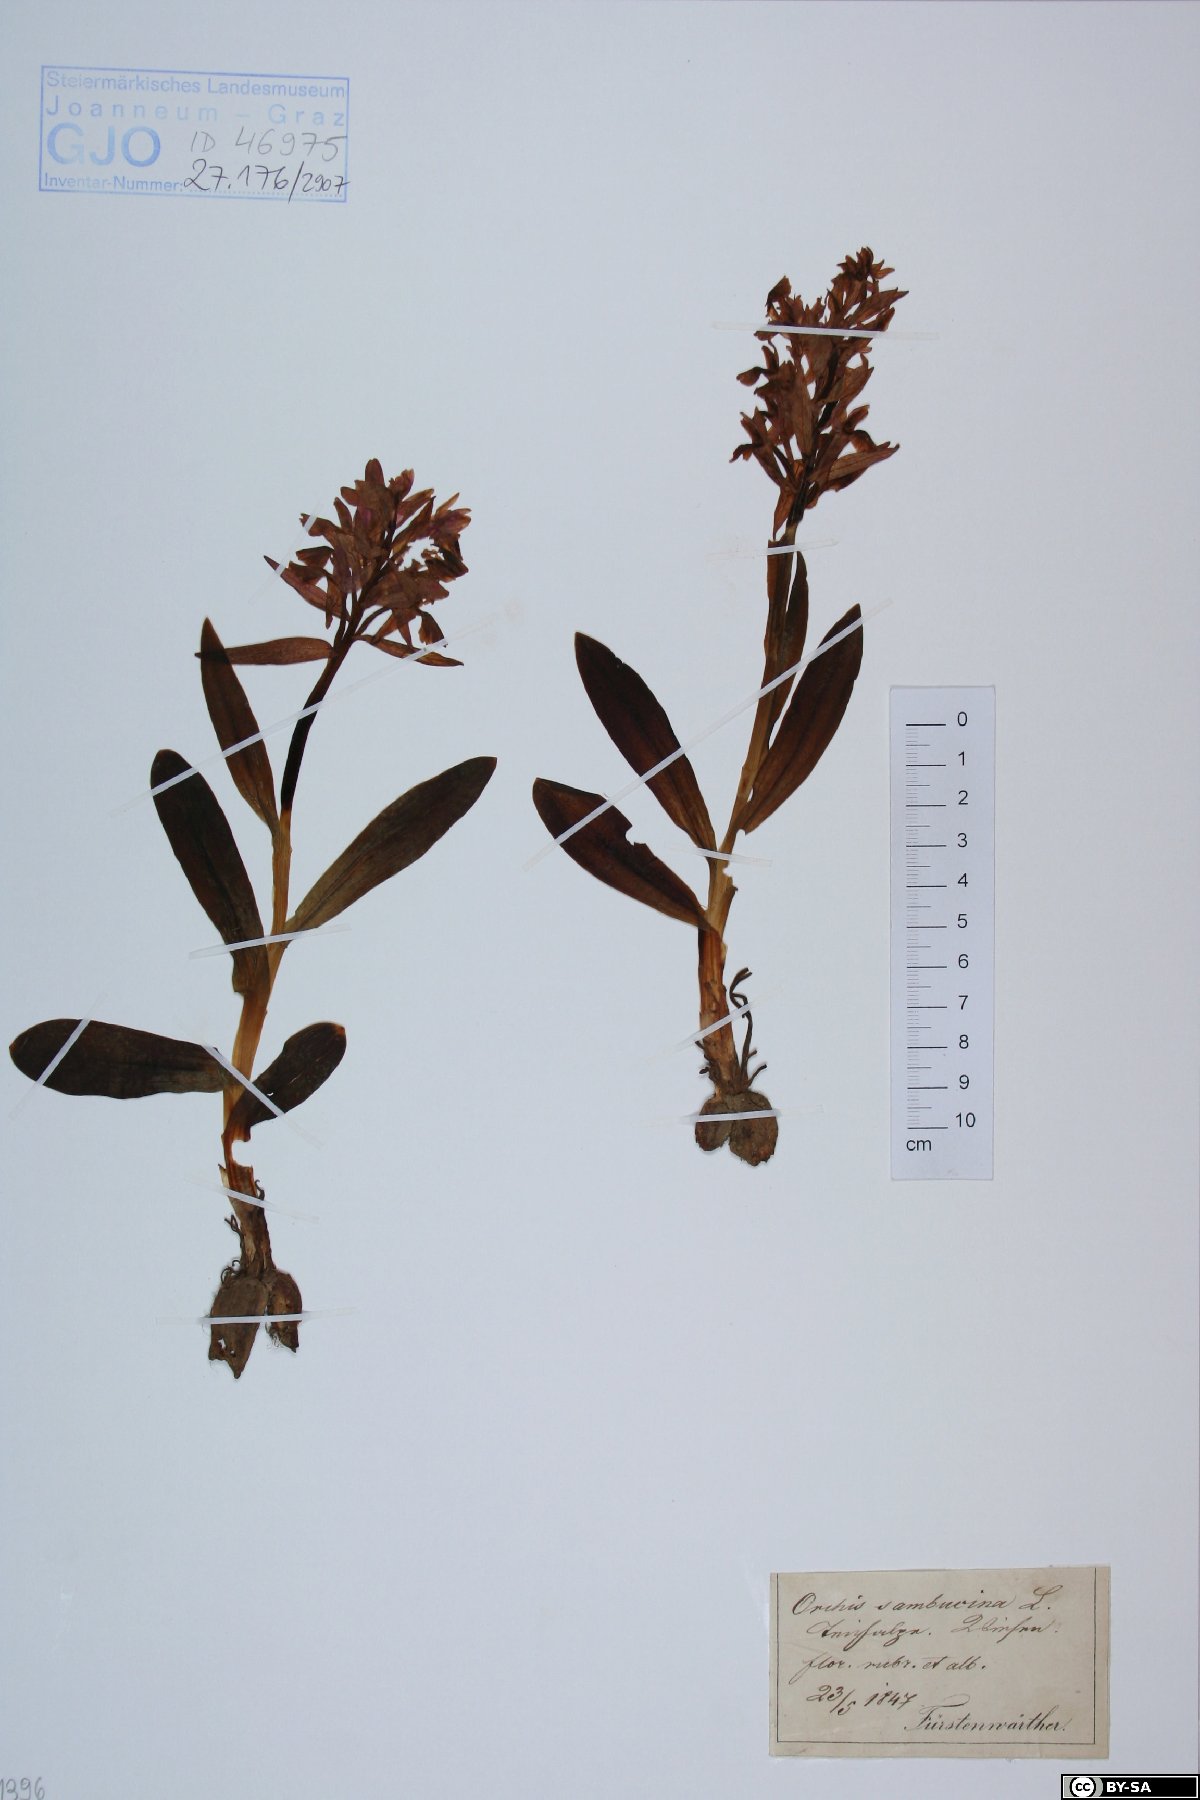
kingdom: Plantae
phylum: Tracheophyta
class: Liliopsida
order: Asparagales
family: Orchidaceae
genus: Dactylorhiza
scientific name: Dactylorhiza sambucina
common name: Elder-flowered orchid
